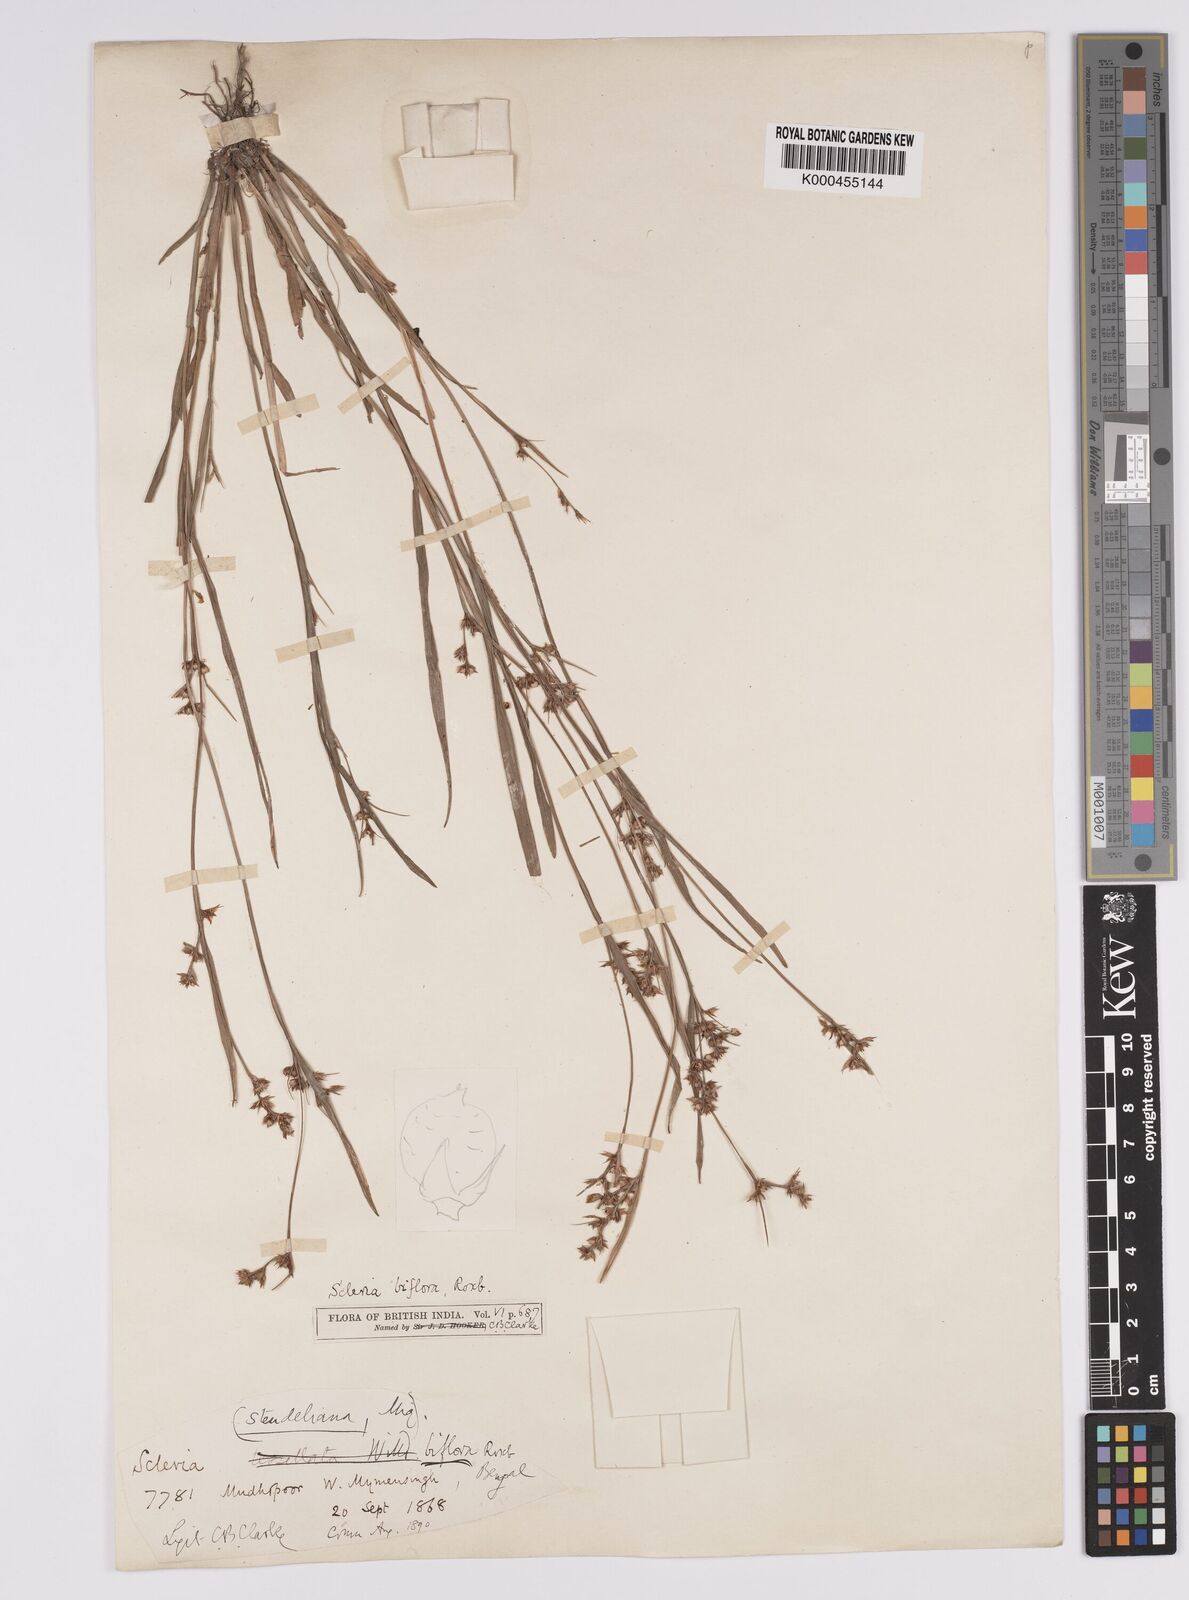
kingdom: Plantae
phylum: Tracheophyta
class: Liliopsida
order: Poales
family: Cyperaceae
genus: Scleria
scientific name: Scleria biflora
